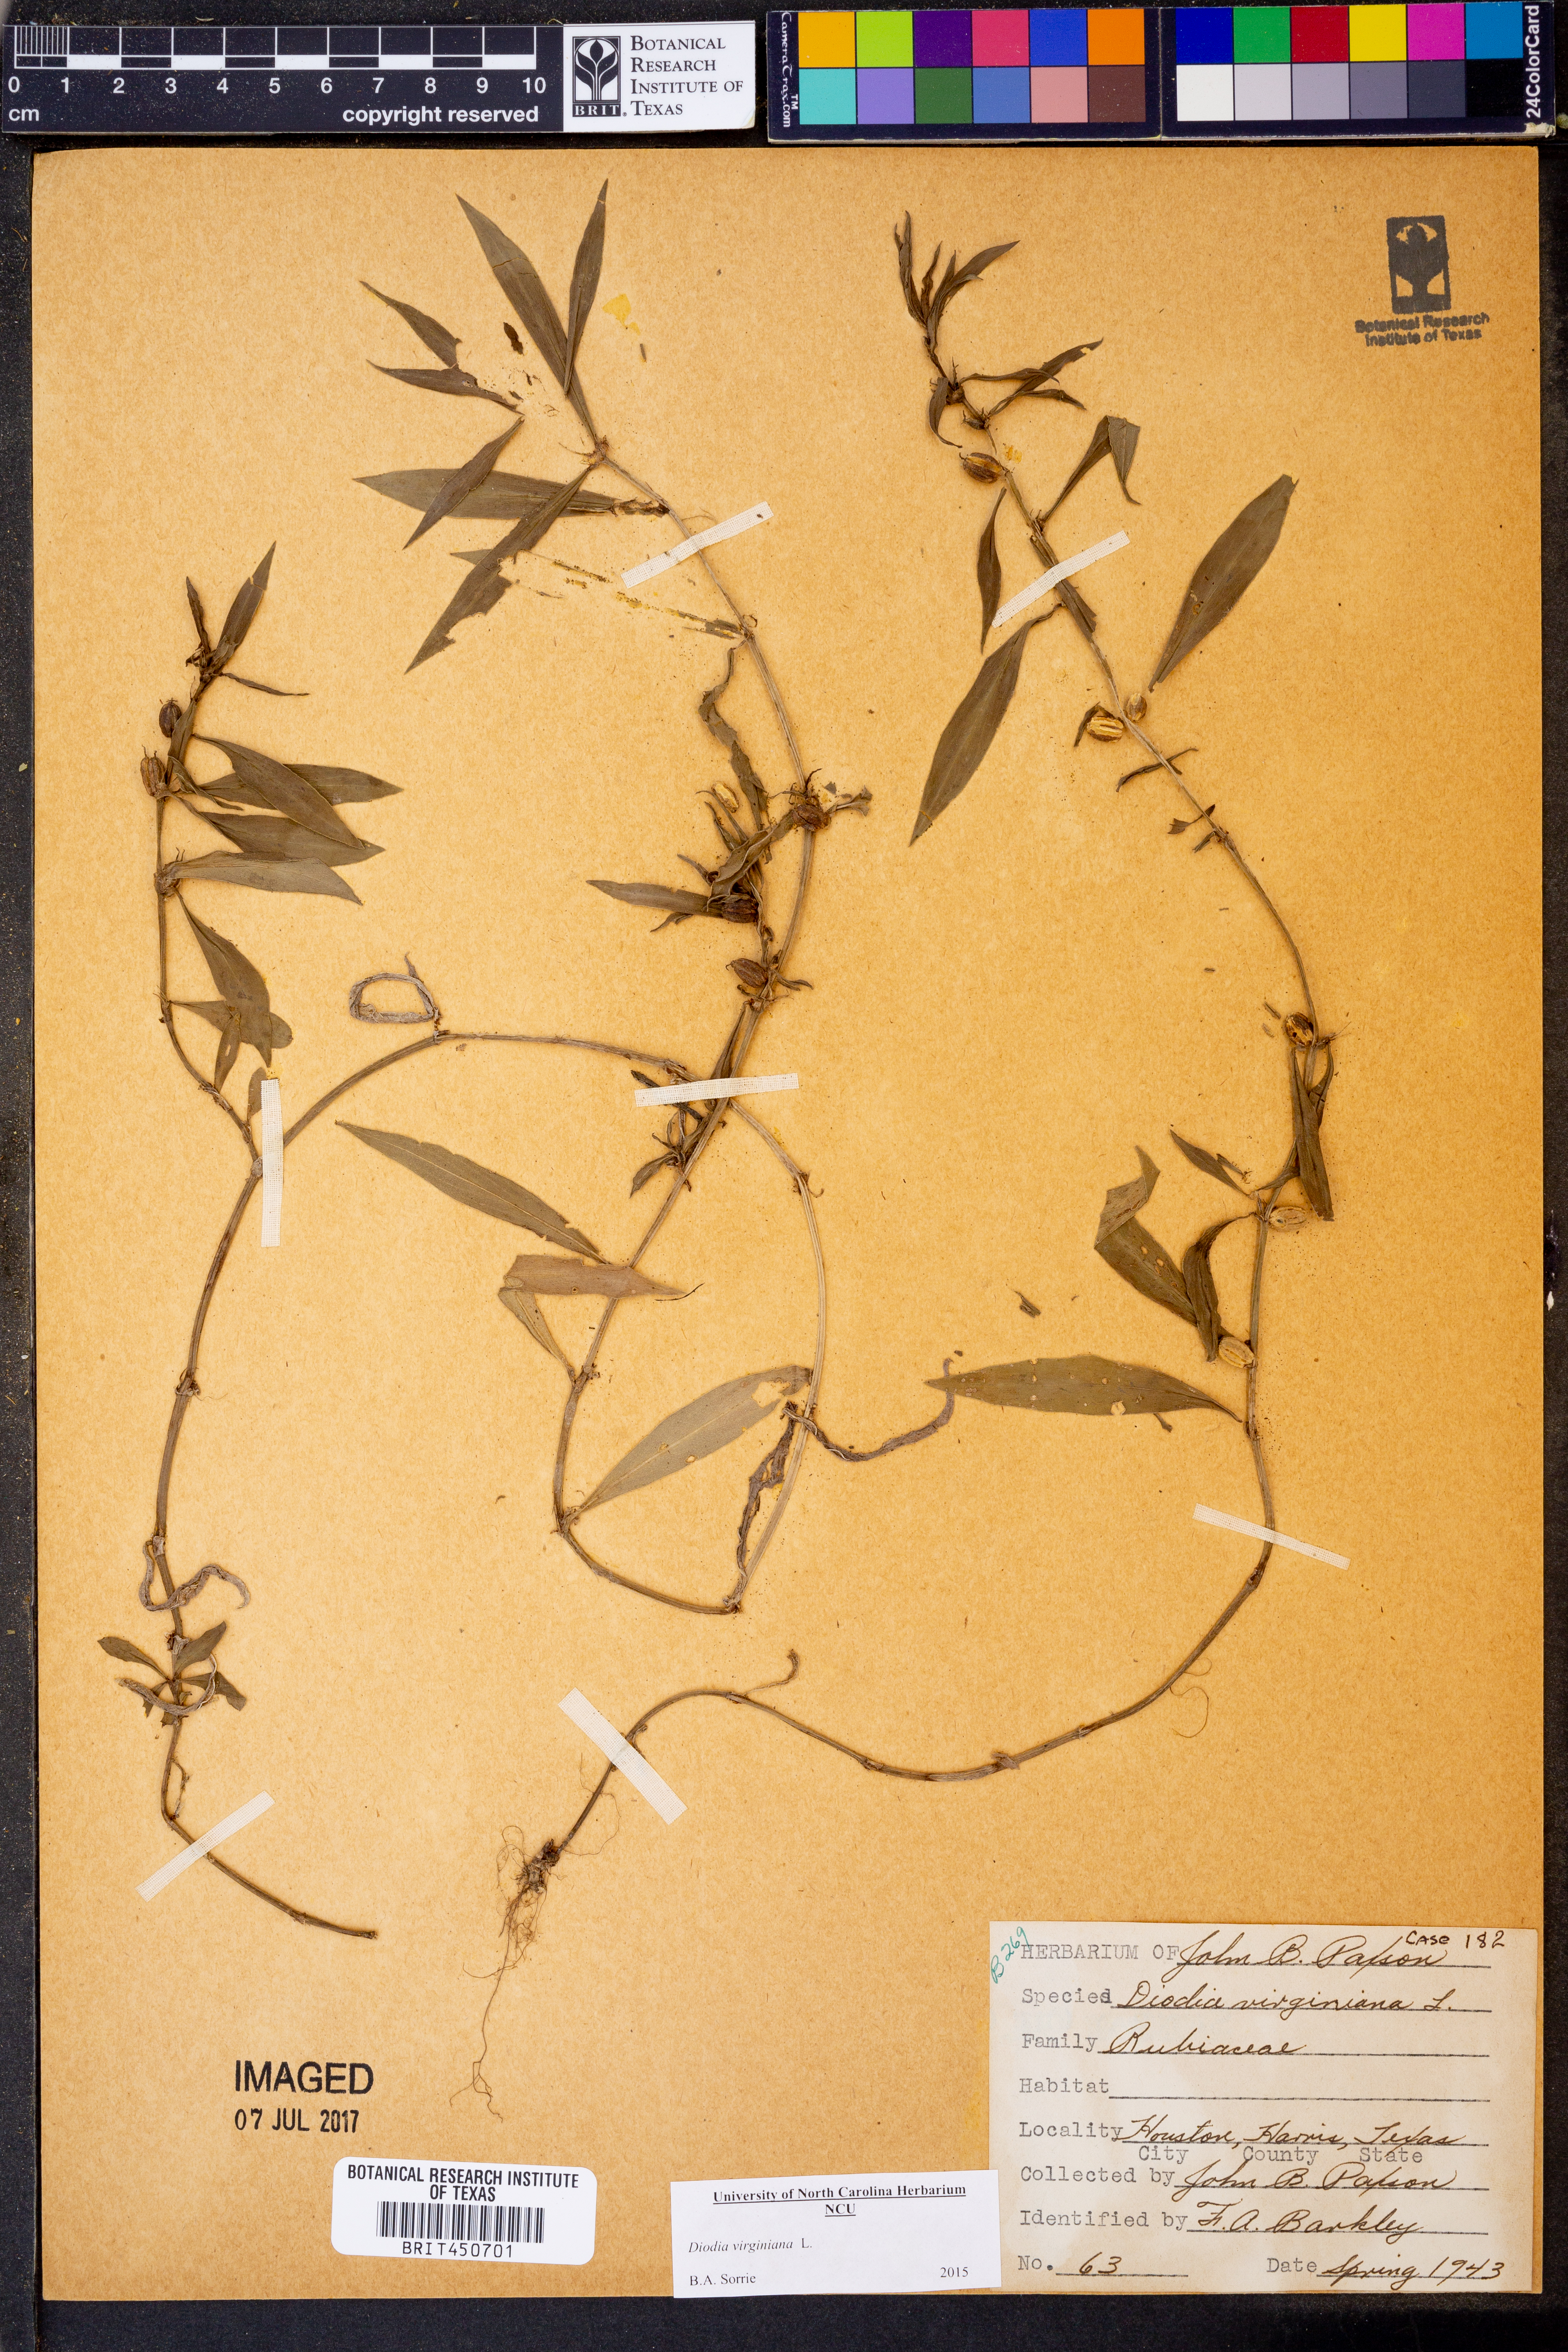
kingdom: Plantae
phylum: Tracheophyta
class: Magnoliopsida
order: Gentianales
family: Rubiaceae
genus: Diodia
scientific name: Diodia virginiana
